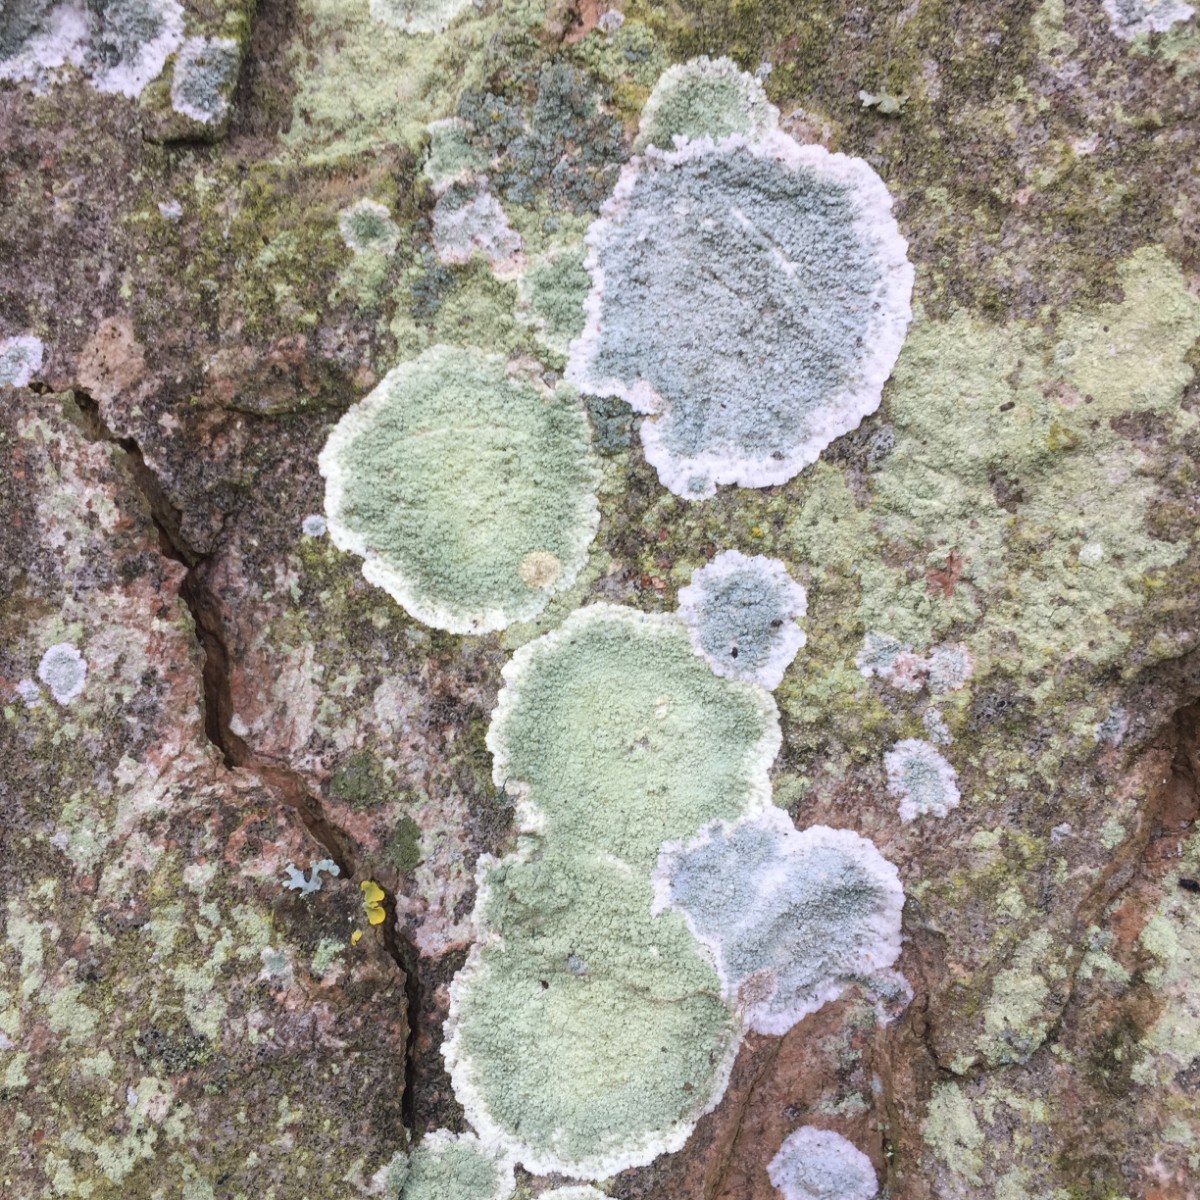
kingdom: Fungi
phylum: Ascomycota
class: Lecanoromycetes
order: Lecanorales
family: Haematommataceae
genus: Haematomma
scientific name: Haematomma ochroleucum
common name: gul trådkantlav
